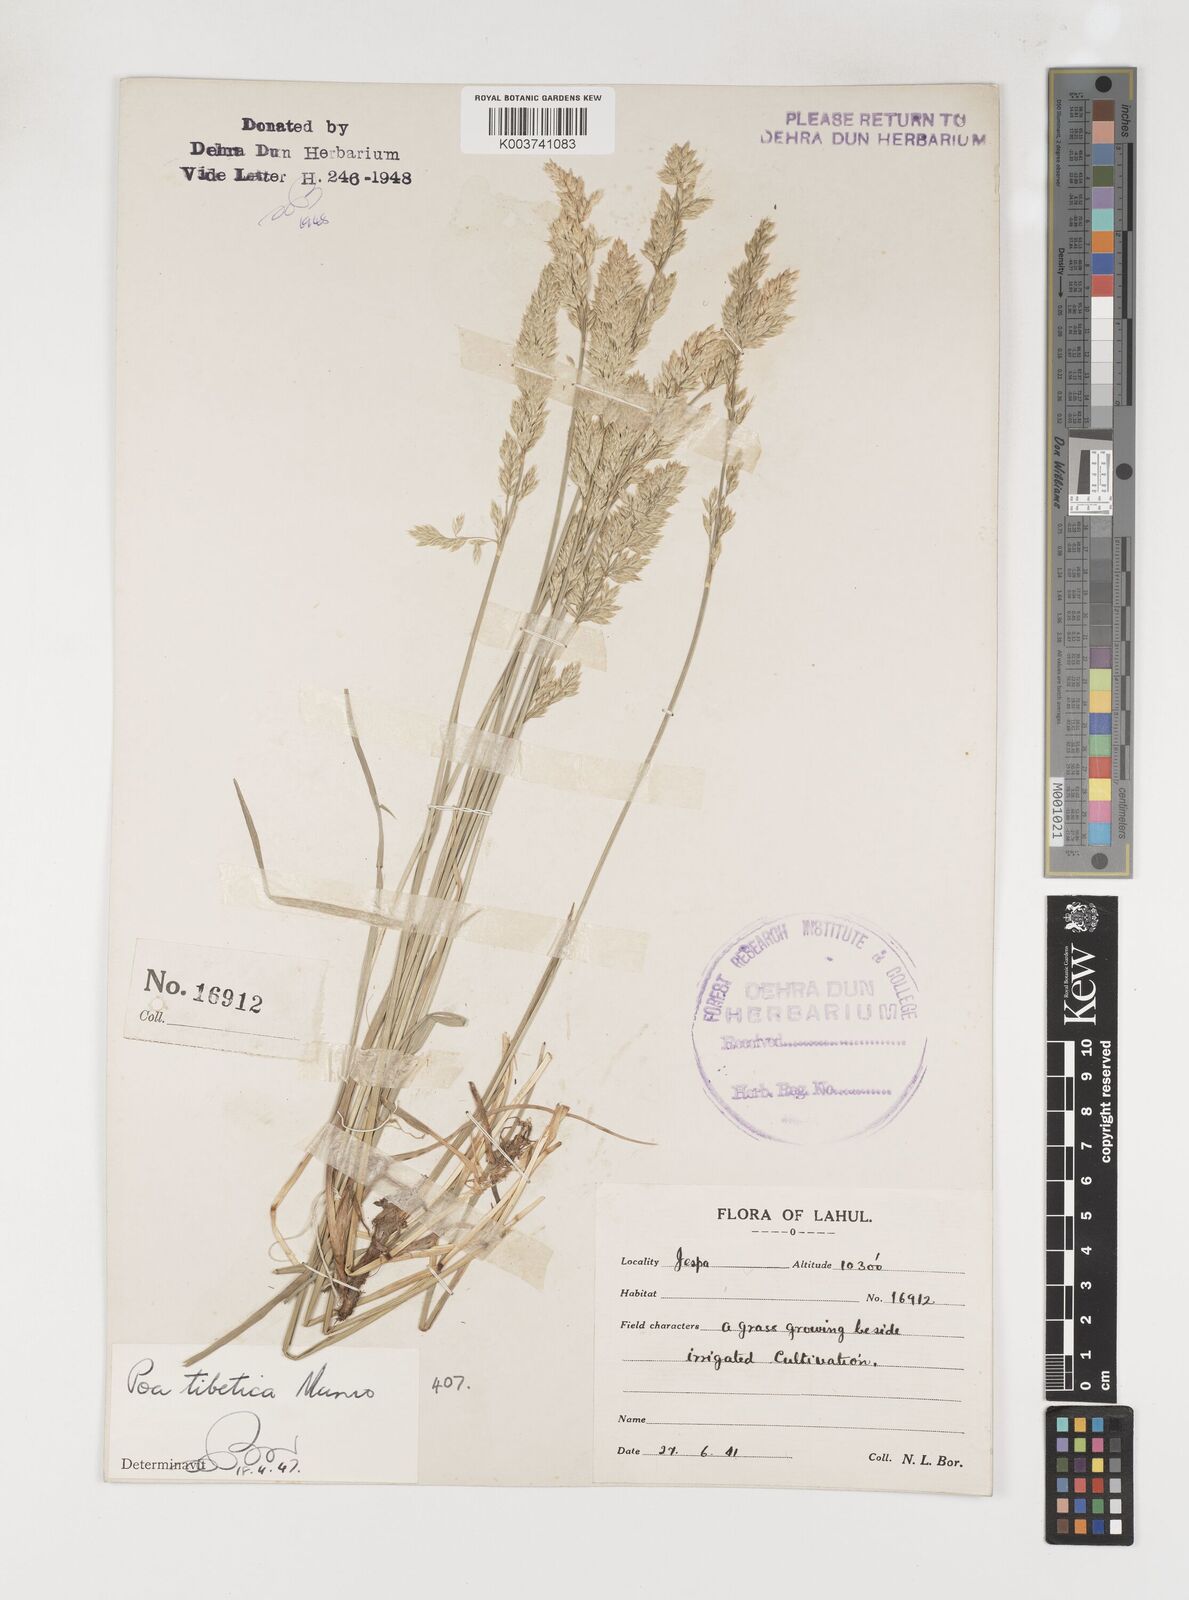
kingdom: Plantae
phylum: Tracheophyta
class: Liliopsida
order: Poales
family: Poaceae
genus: Arctopoa
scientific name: Arctopoa tibetica
